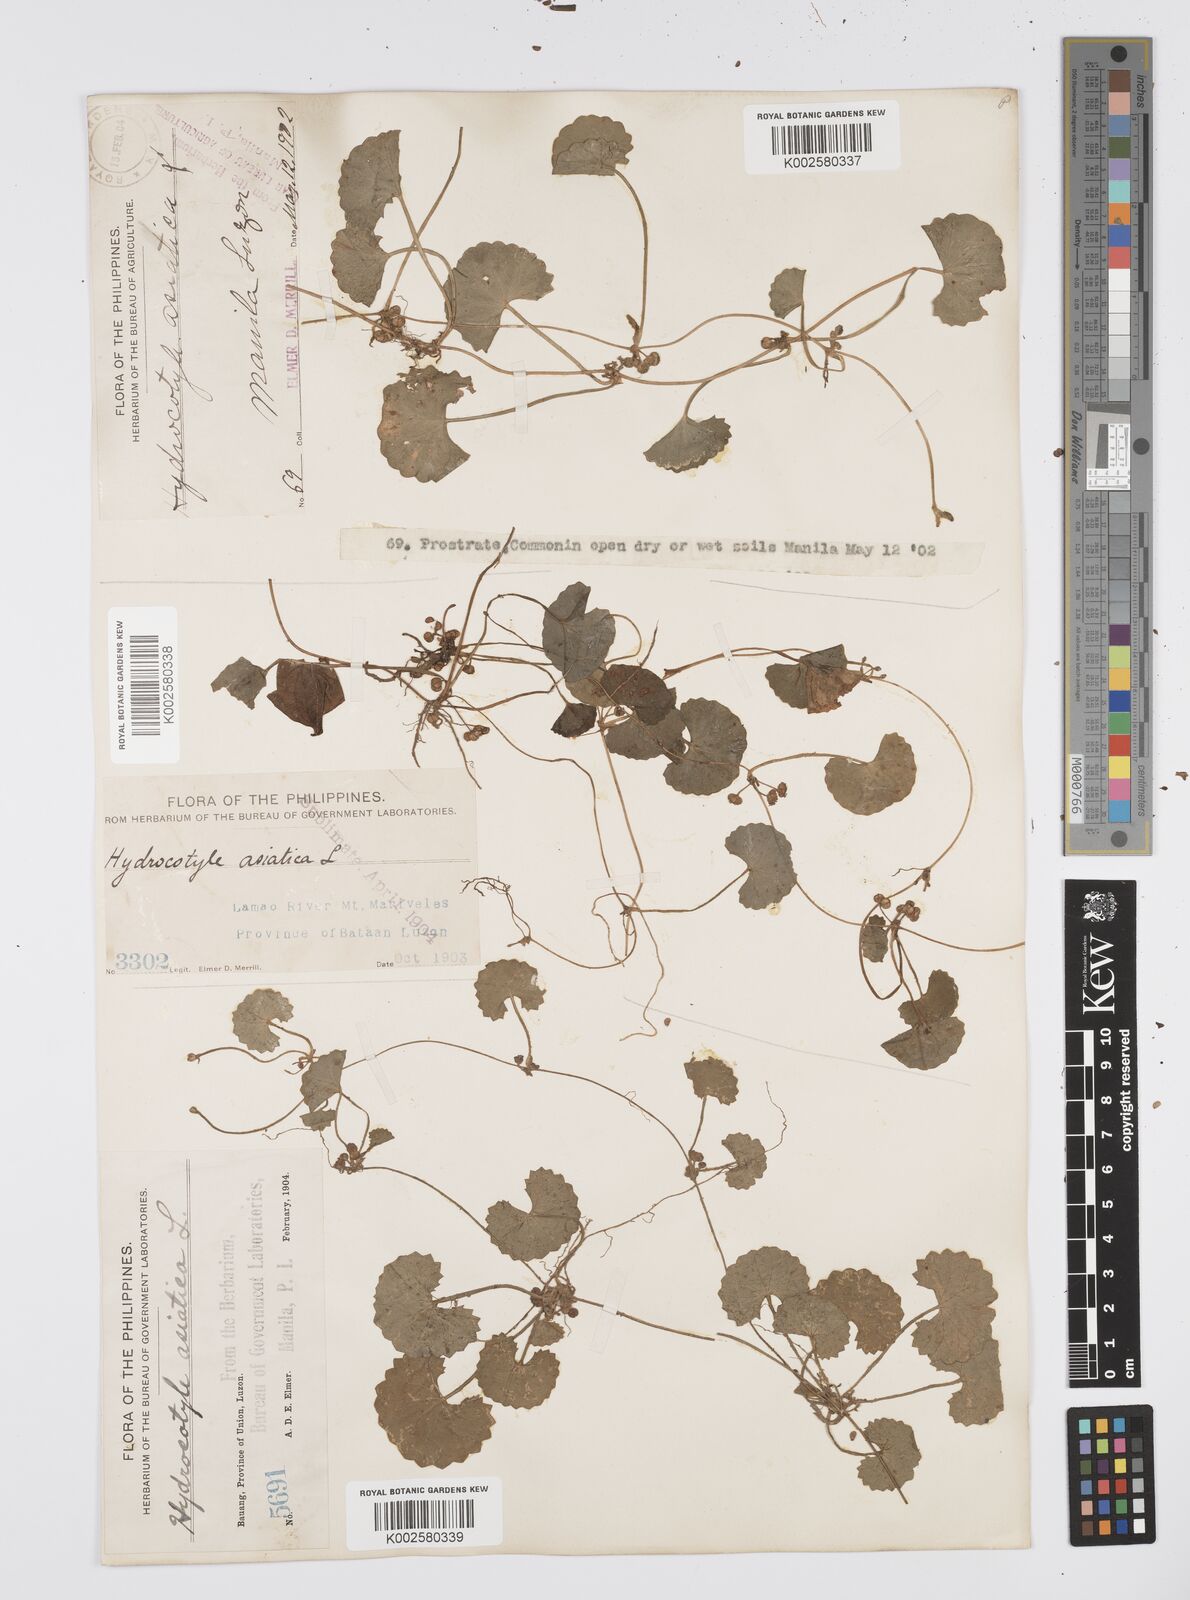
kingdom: Plantae
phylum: Tracheophyta
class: Magnoliopsida
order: Apiales
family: Apiaceae
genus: Centella
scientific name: Centella asiatica
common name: Spadeleaf
